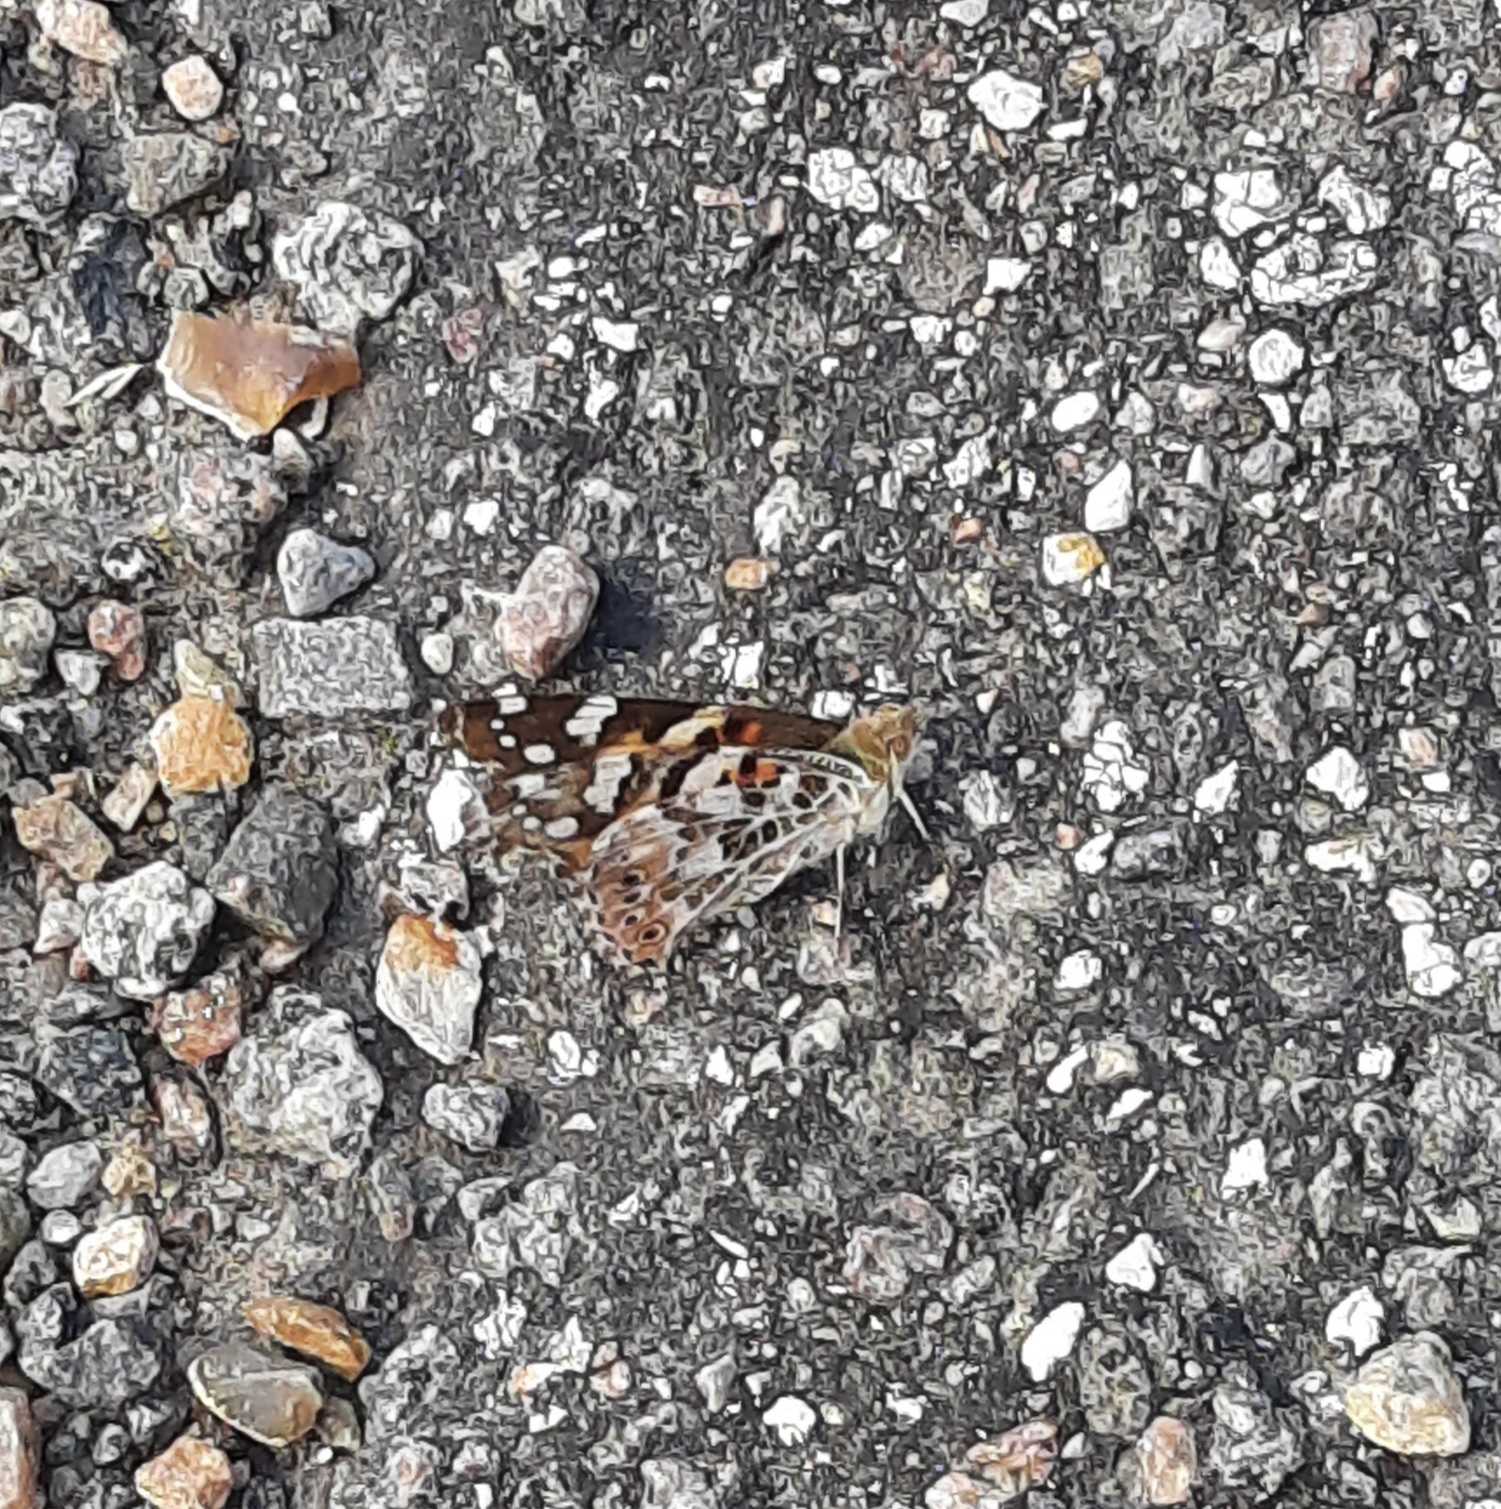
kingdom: Animalia
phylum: Arthropoda
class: Insecta
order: Lepidoptera
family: Nymphalidae
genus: Vanessa
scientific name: Vanessa cardui
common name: Tidselsommerfugl
